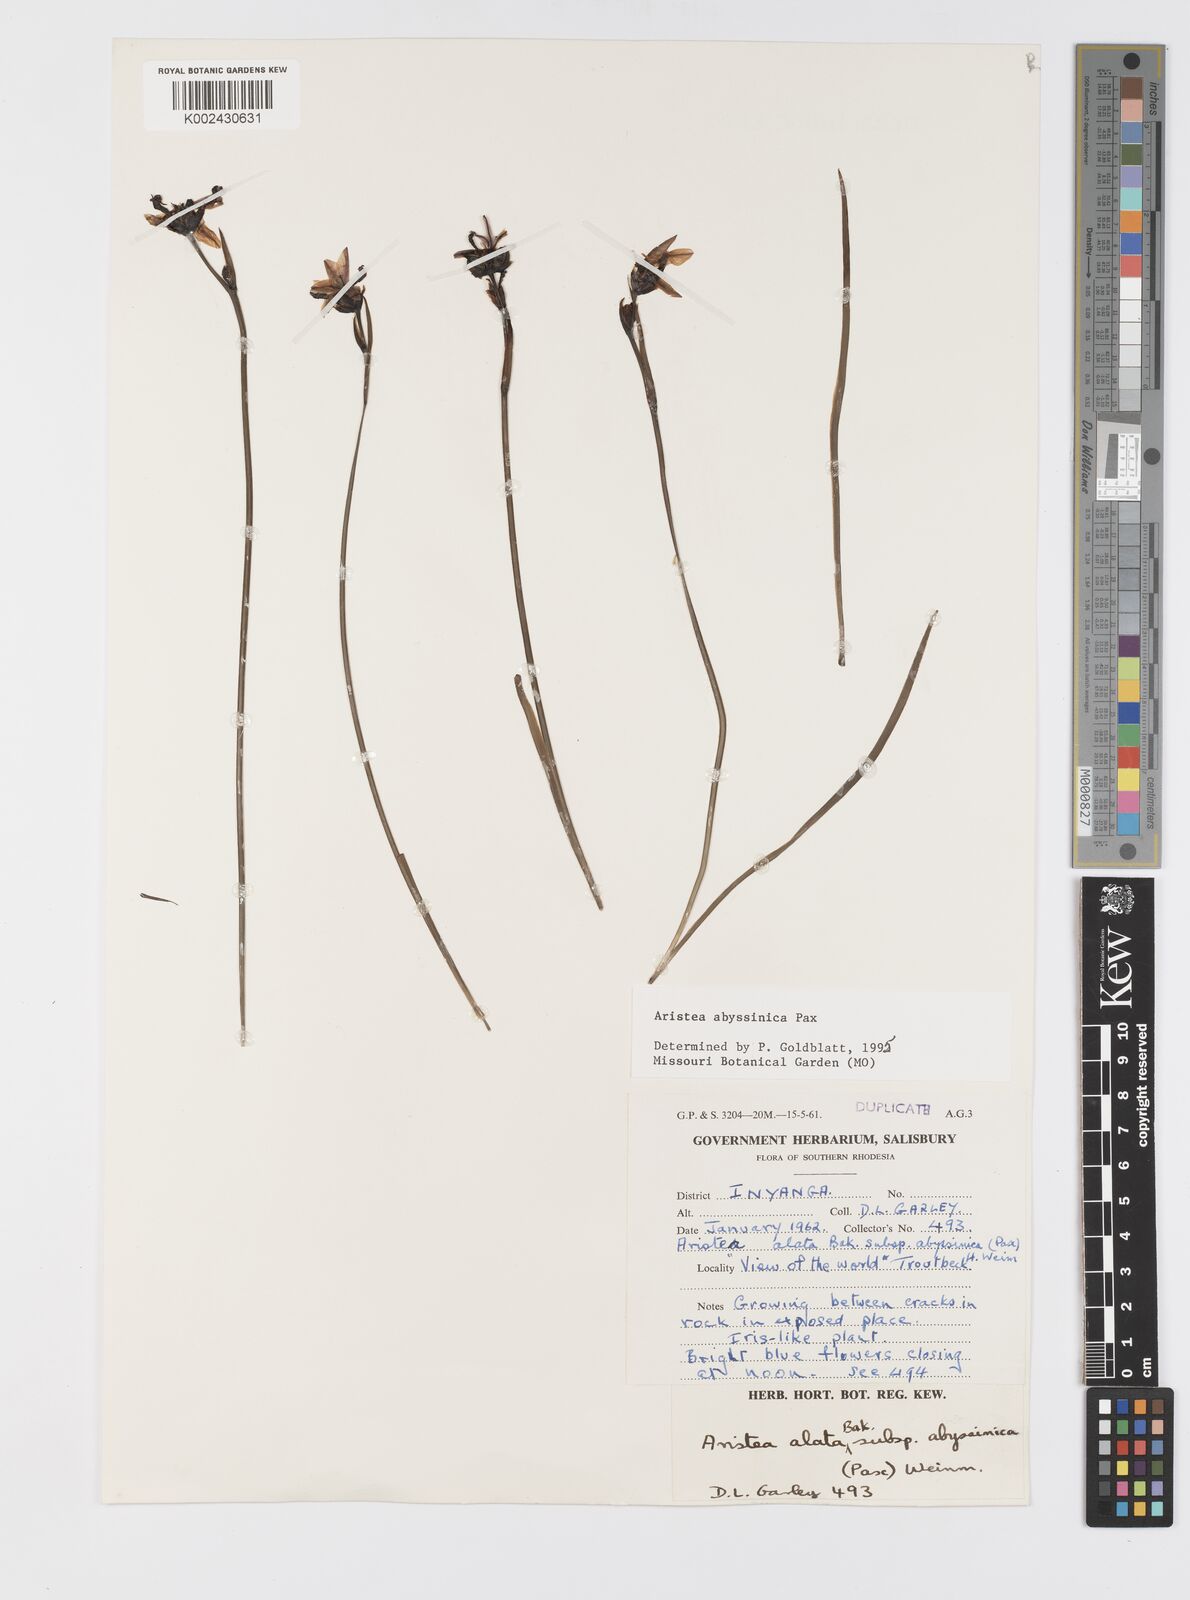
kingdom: Plantae
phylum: Tracheophyta
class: Liliopsida
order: Asparagales
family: Iridaceae
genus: Aristea
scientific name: Aristea abyssinica
